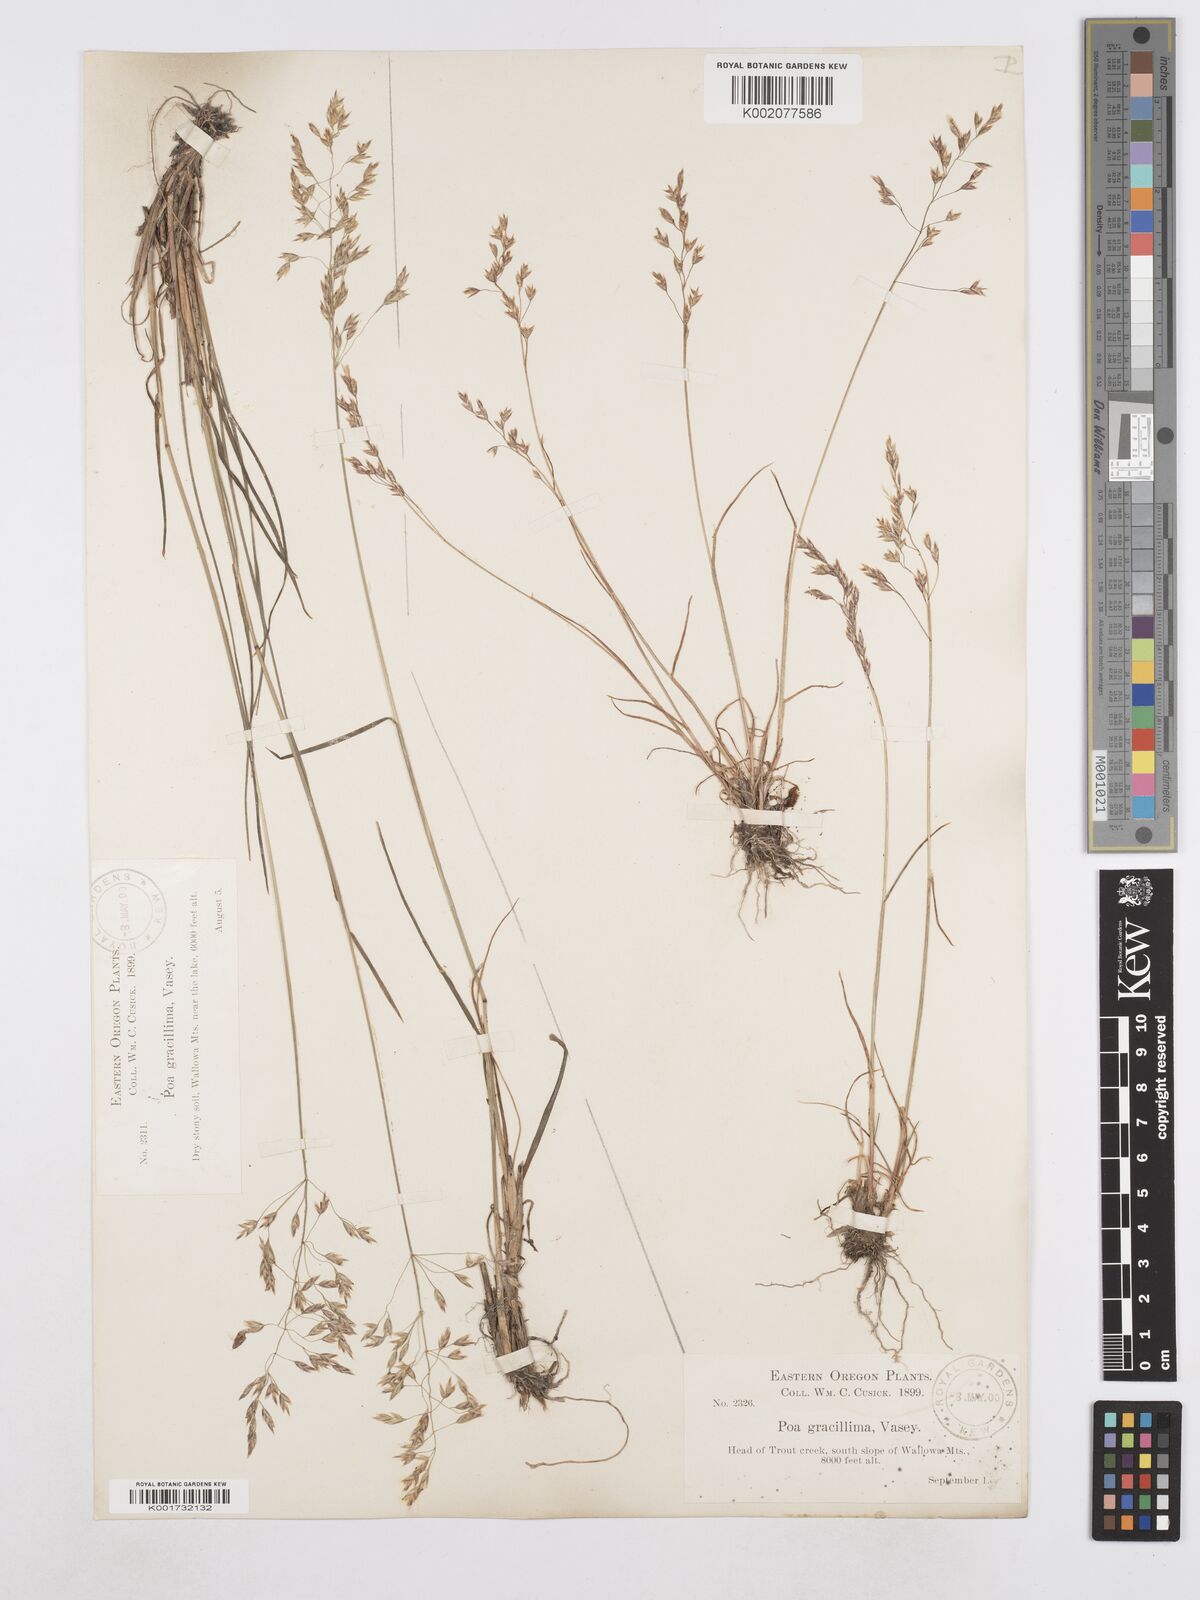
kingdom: Plantae
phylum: Tracheophyta
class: Liliopsida
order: Poales
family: Poaceae
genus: Poa
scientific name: Poa secunda
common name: Sandberg bluegrass
